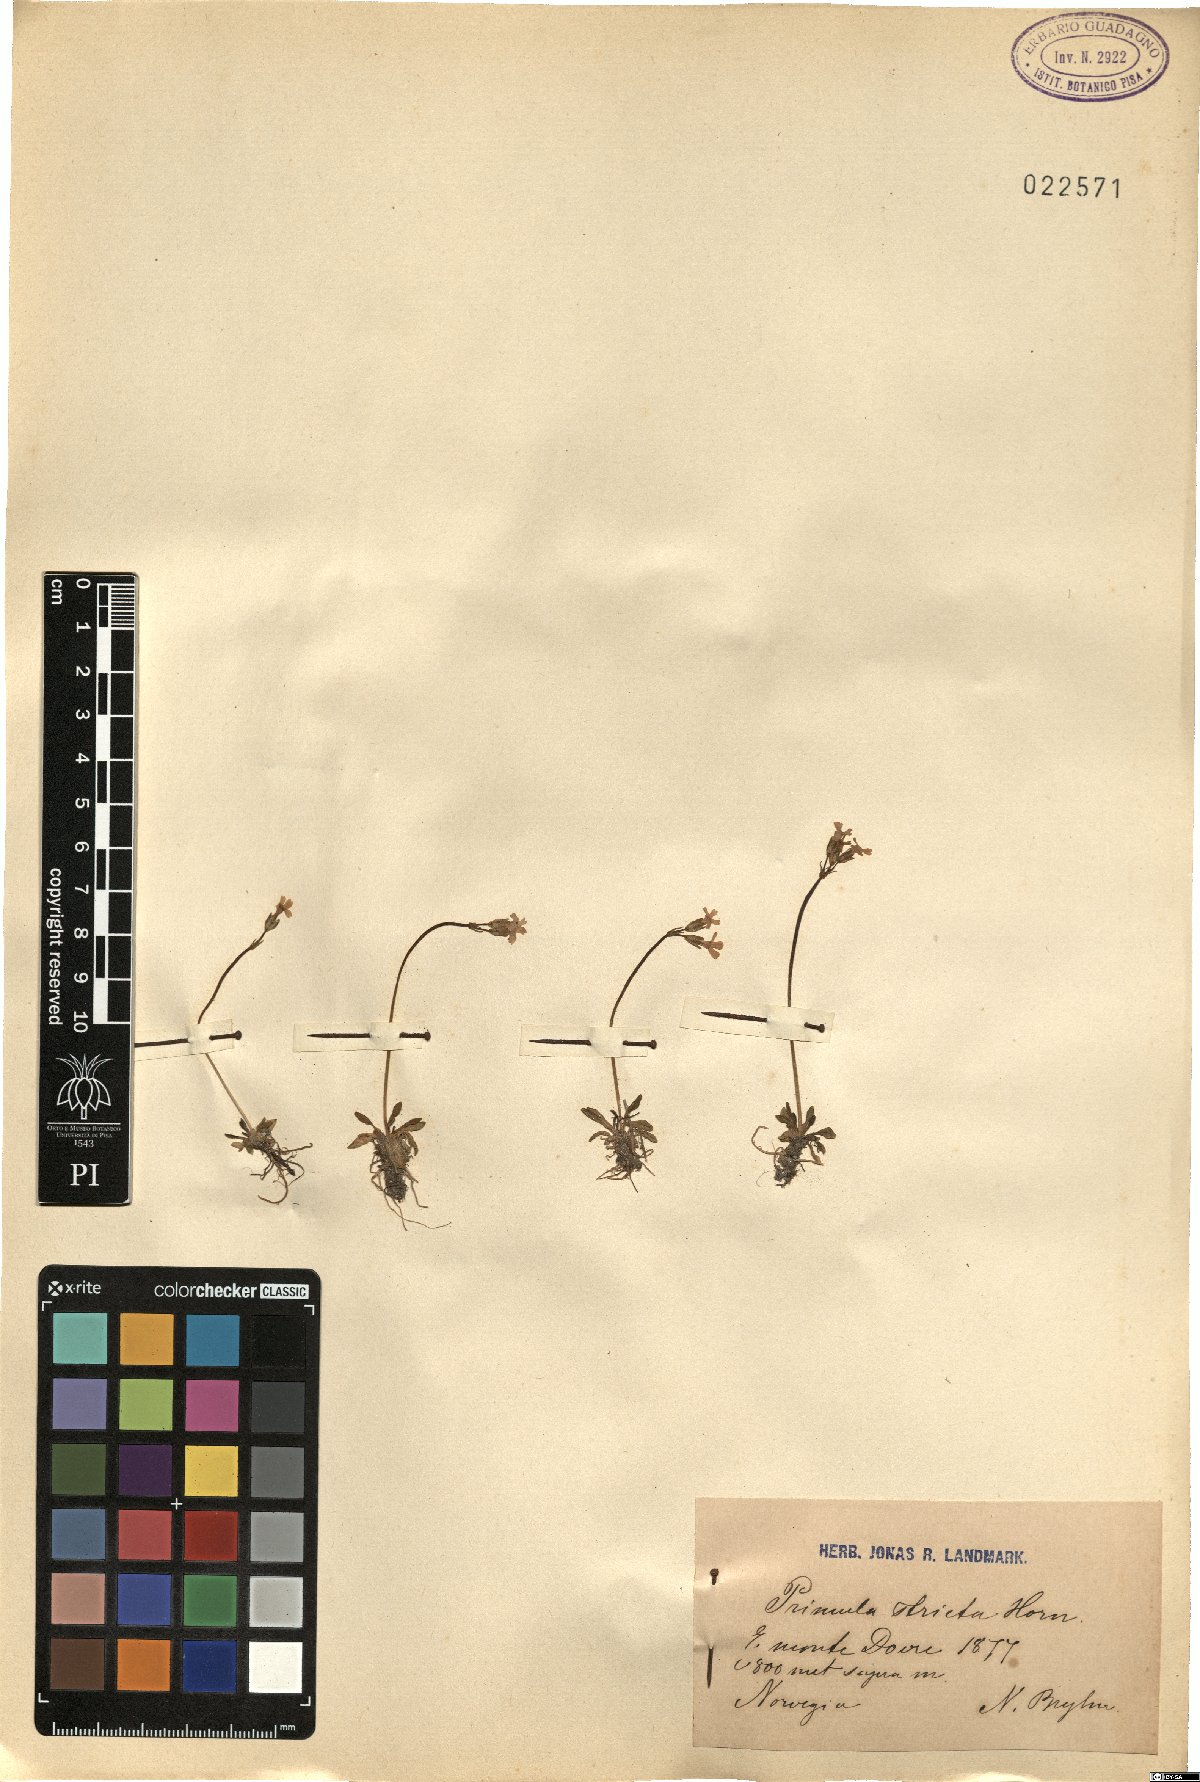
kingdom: Plantae
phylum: Tracheophyta
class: Magnoliopsida
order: Ericales
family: Primulaceae
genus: Primula
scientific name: Primula stricta
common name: Coastal primrose
